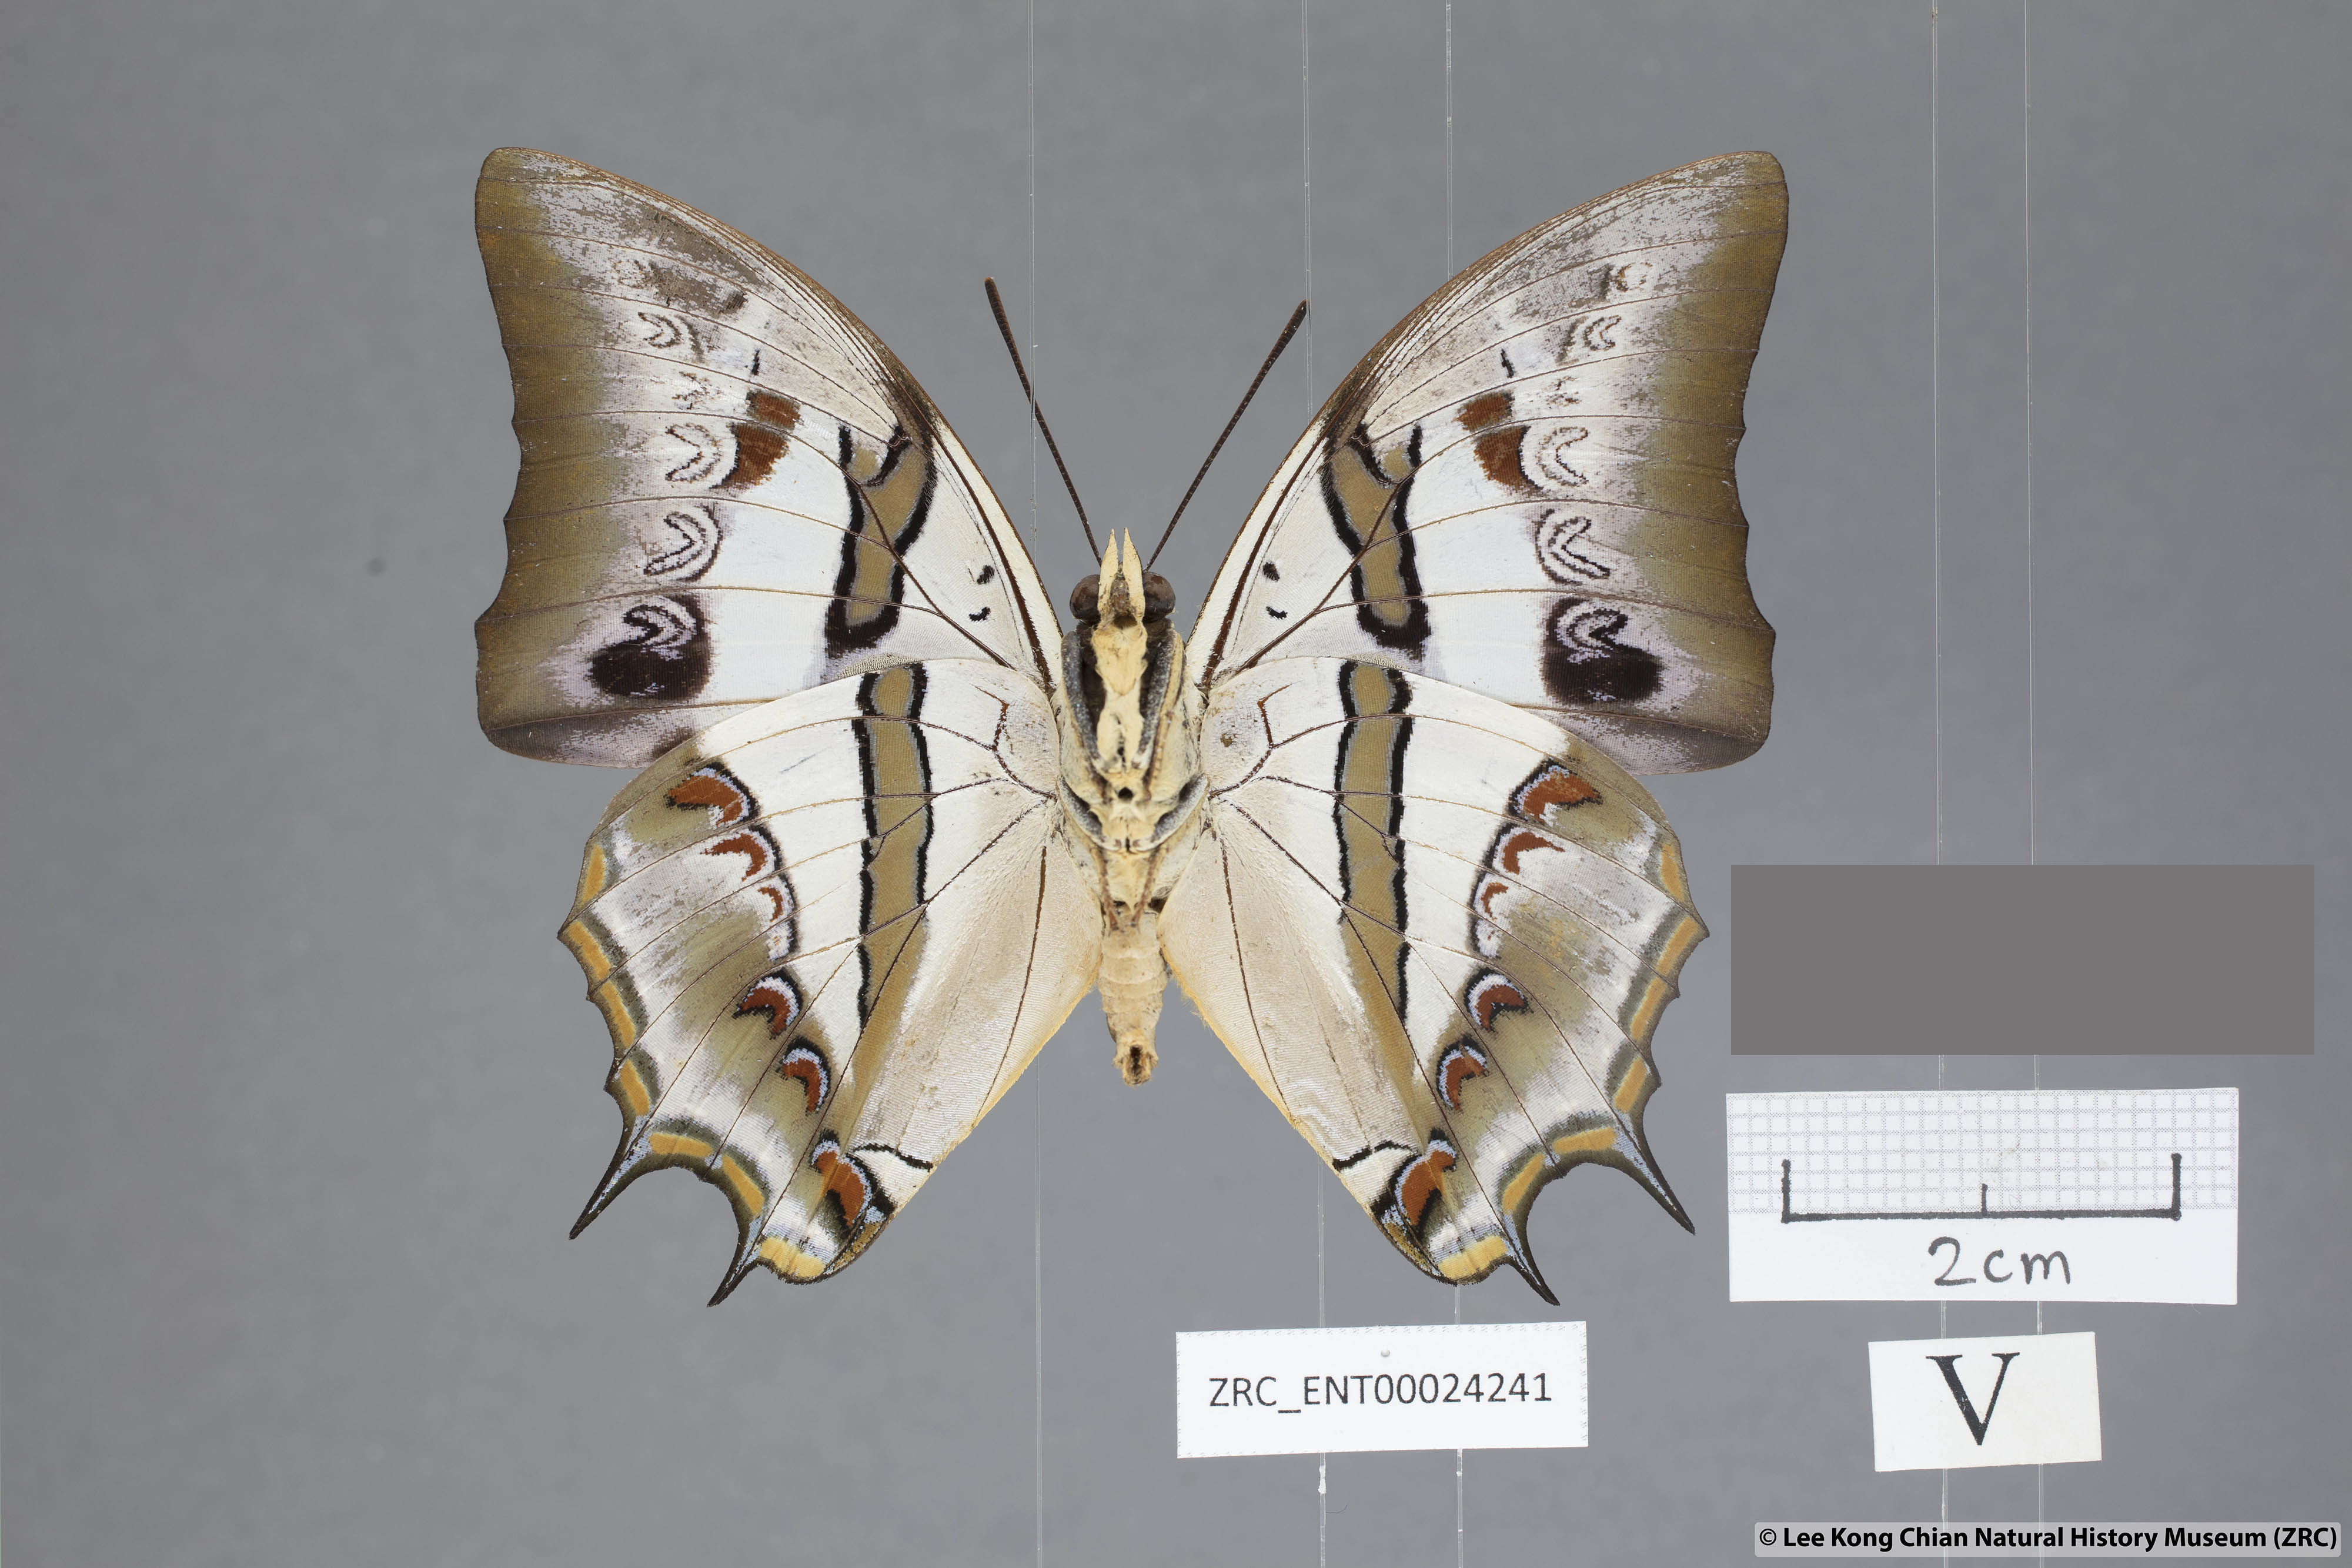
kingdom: Animalia
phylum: Arthropoda
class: Insecta
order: Lepidoptera
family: Nymphalidae
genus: Polyura
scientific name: Polyura schreiberi
